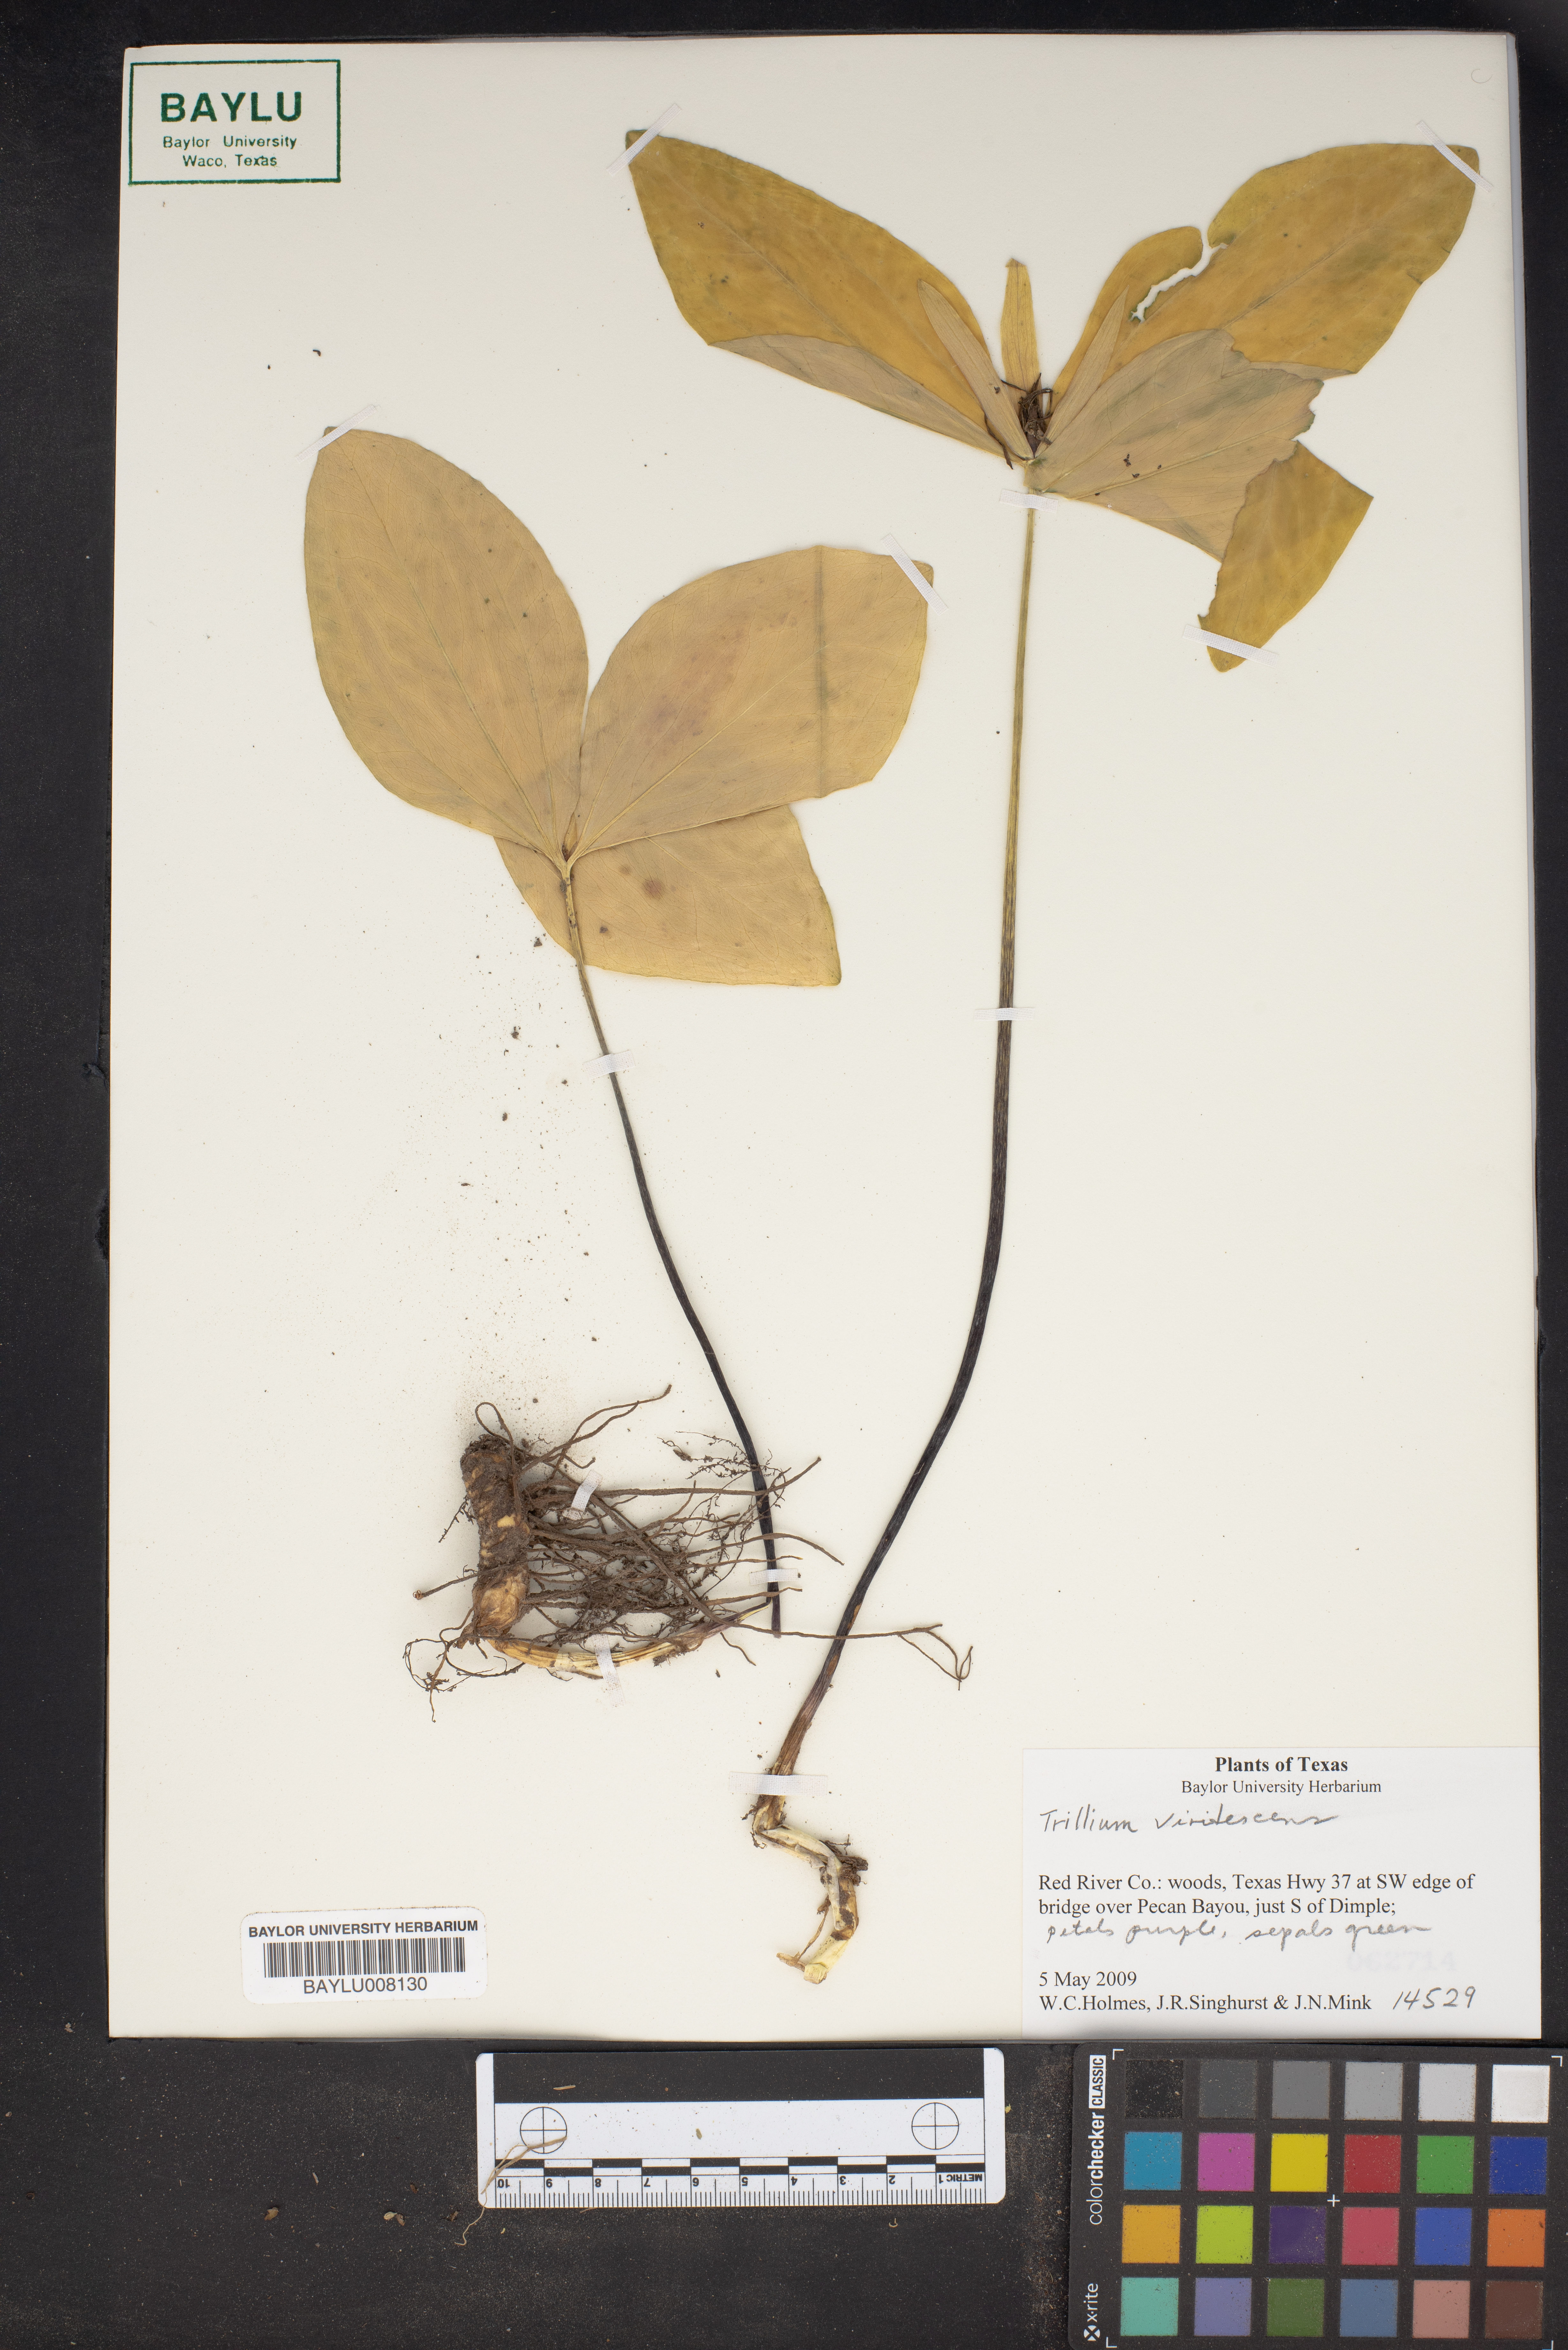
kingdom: Plantae
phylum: Tracheophyta
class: Liliopsida
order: Liliales
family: Melanthiaceae
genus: Trillium
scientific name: Trillium viridescens
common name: Ozark green trillium
